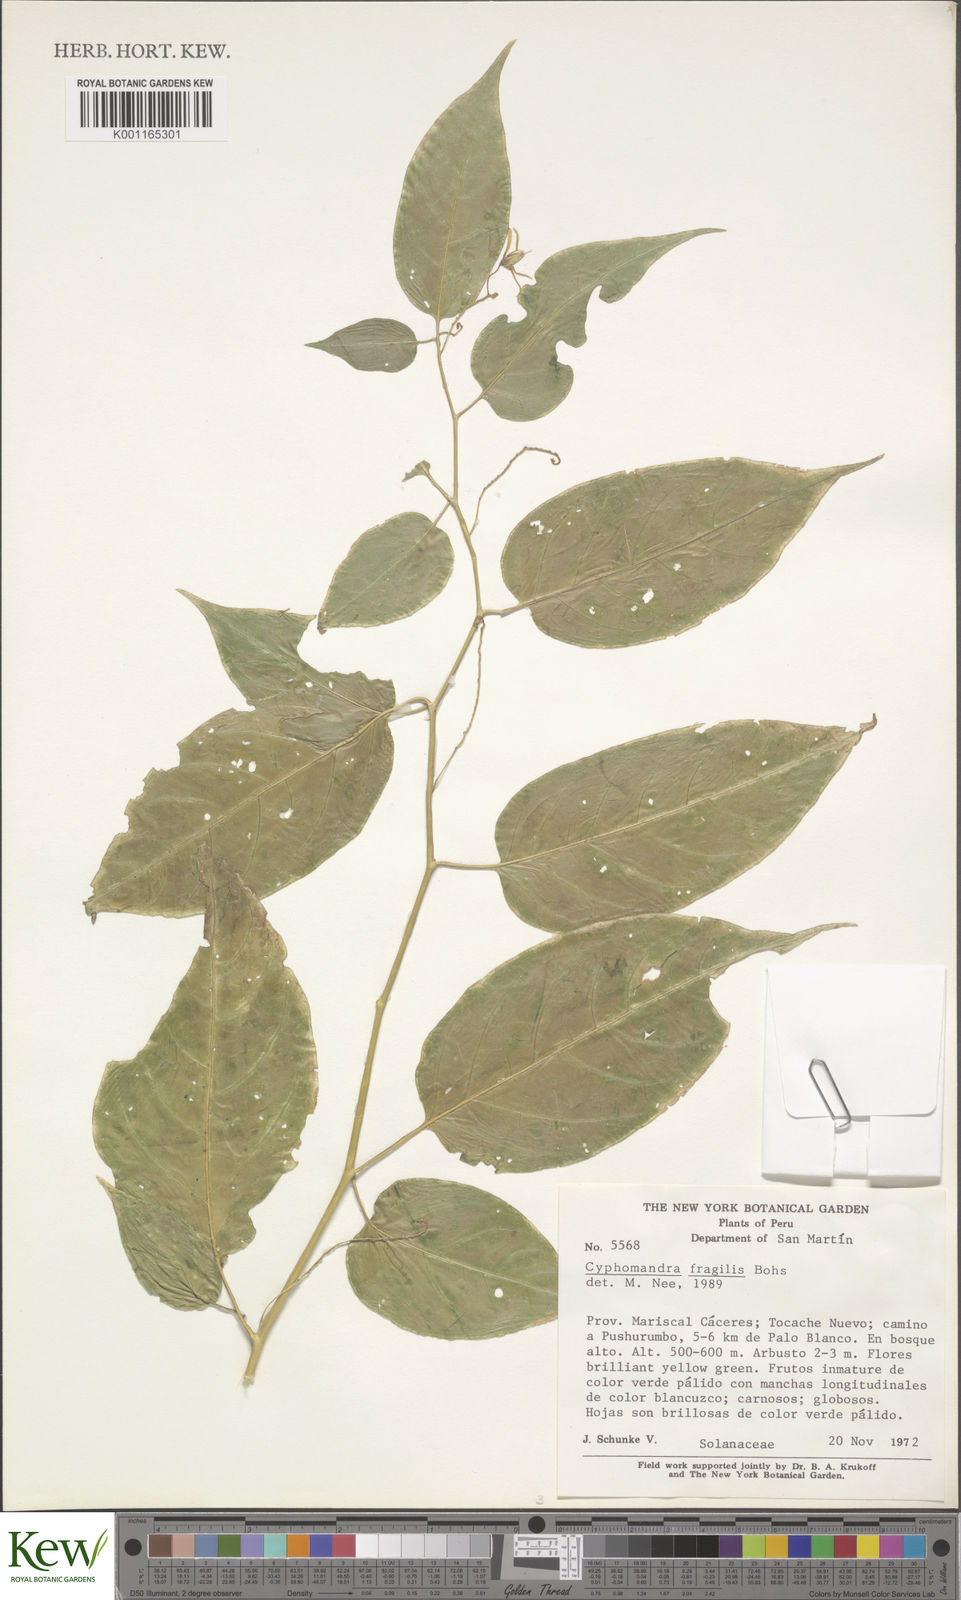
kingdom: Plantae
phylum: Tracheophyta
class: Magnoliopsida
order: Solanales
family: Solanaceae
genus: Solanum
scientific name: Solanum oxyphyllum
